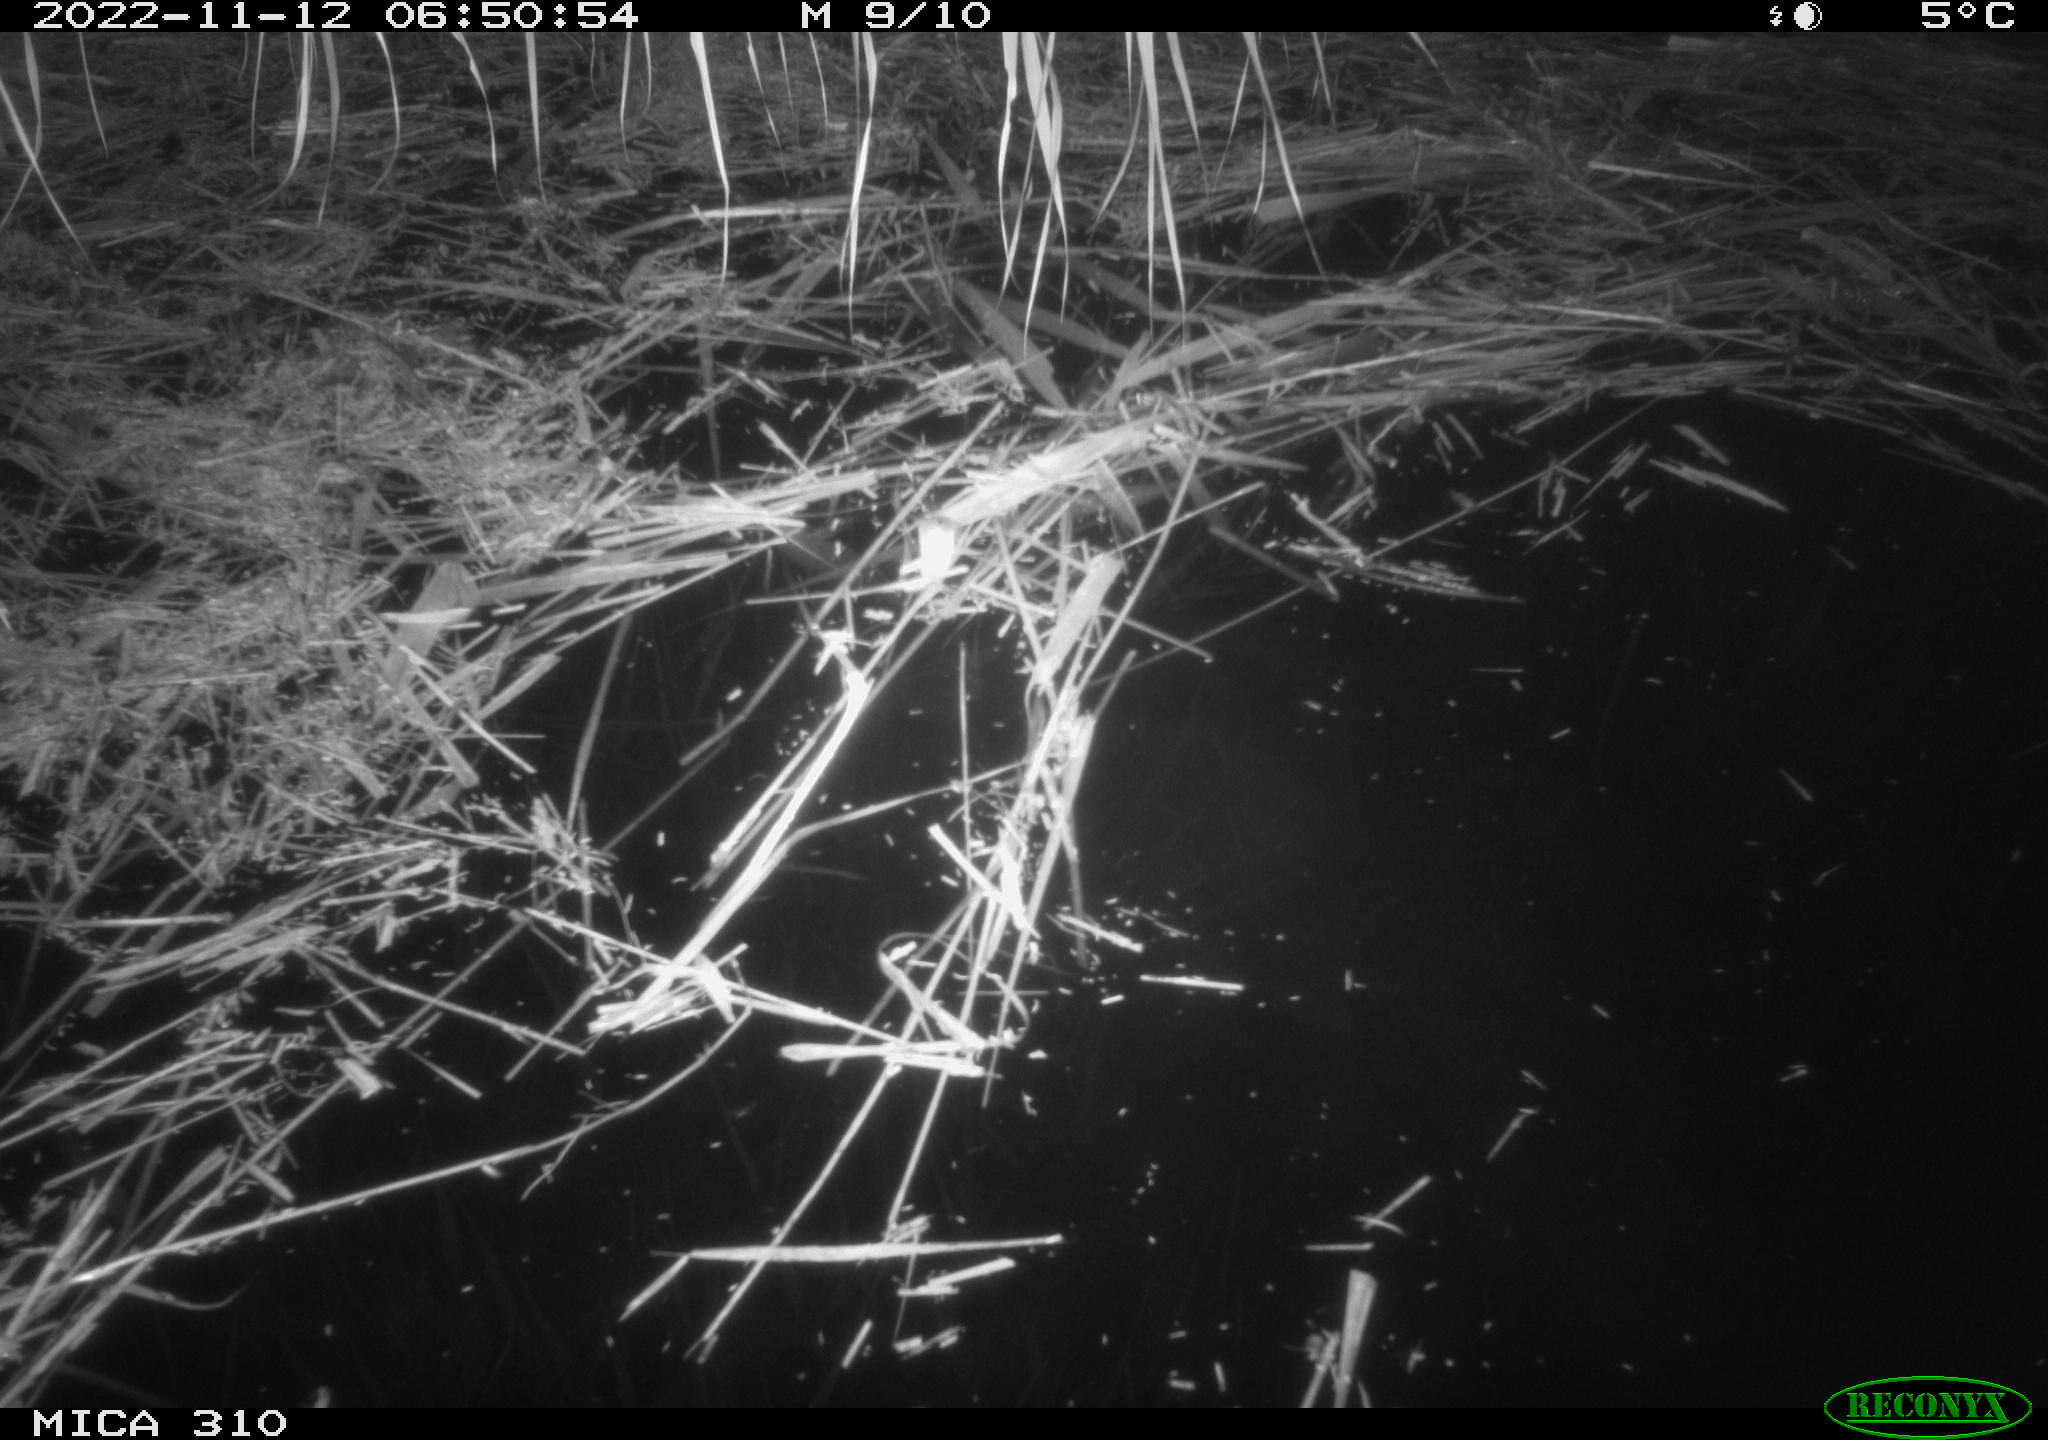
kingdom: Animalia
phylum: Chordata
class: Mammalia
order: Rodentia
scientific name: Rodentia
